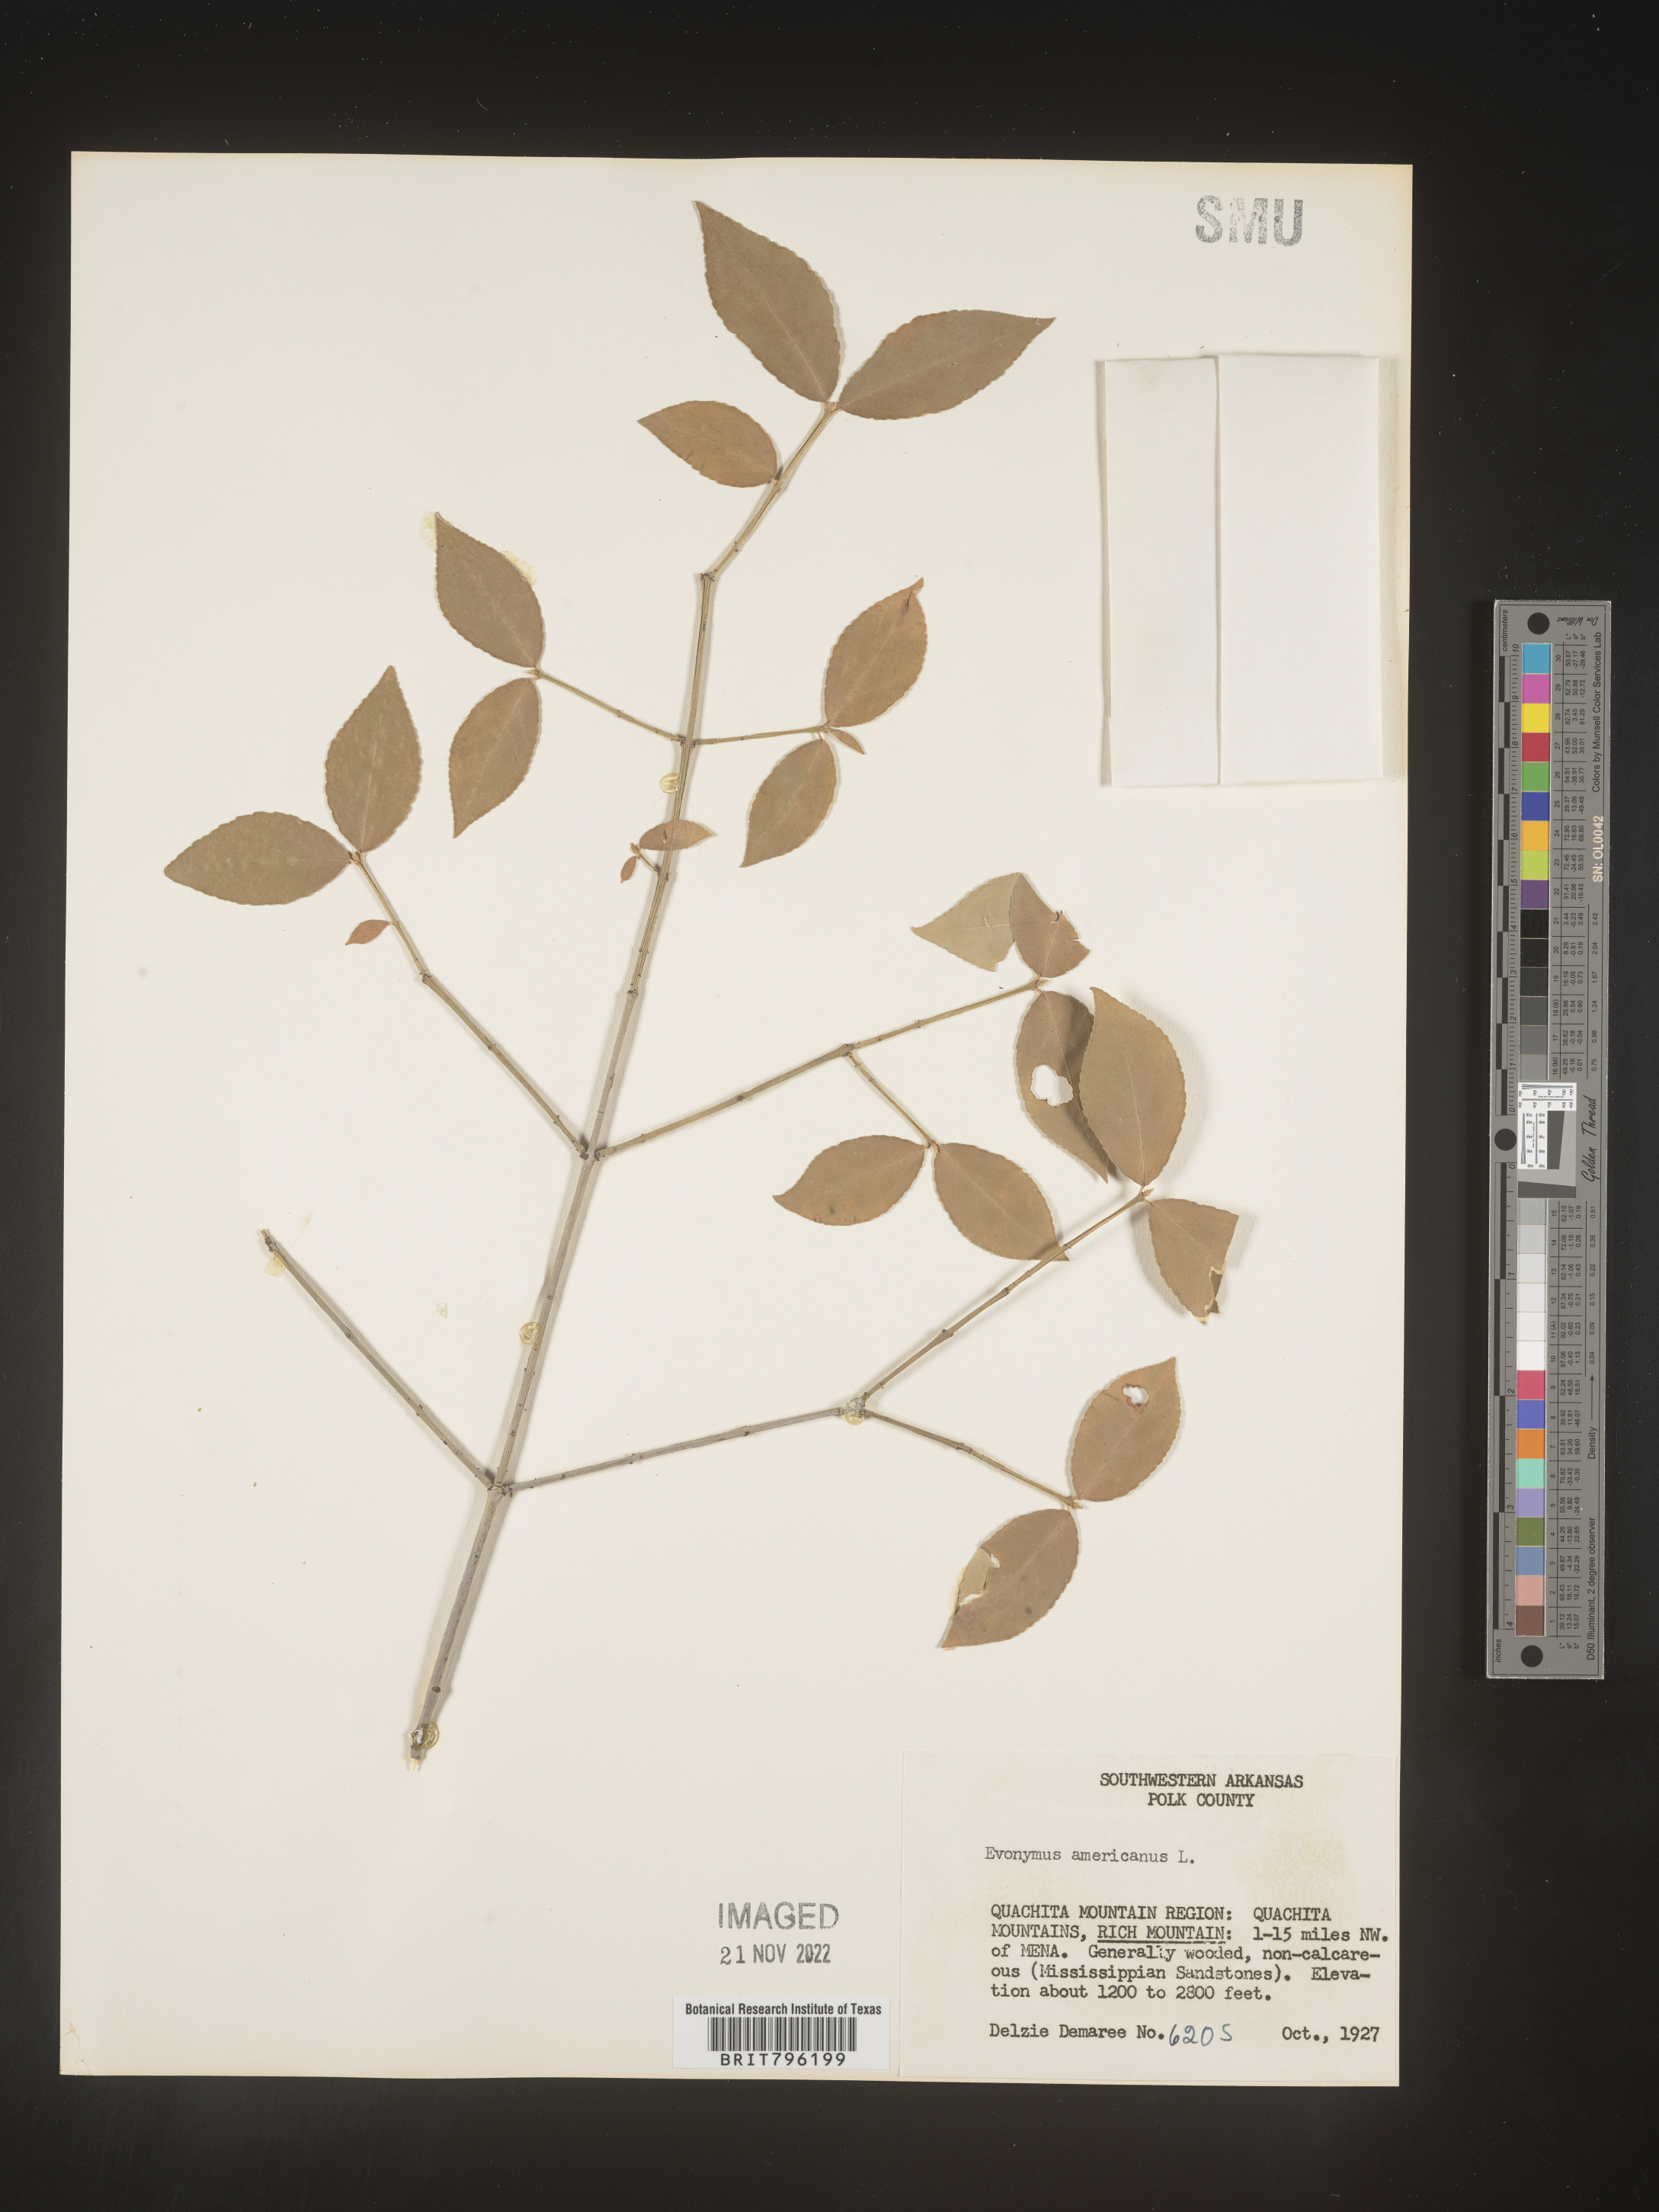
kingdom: Plantae
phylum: Tracheophyta
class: Magnoliopsida
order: Celastrales
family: Celastraceae
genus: Euonymus
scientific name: Euonymus americanus
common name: Bursting-heart
